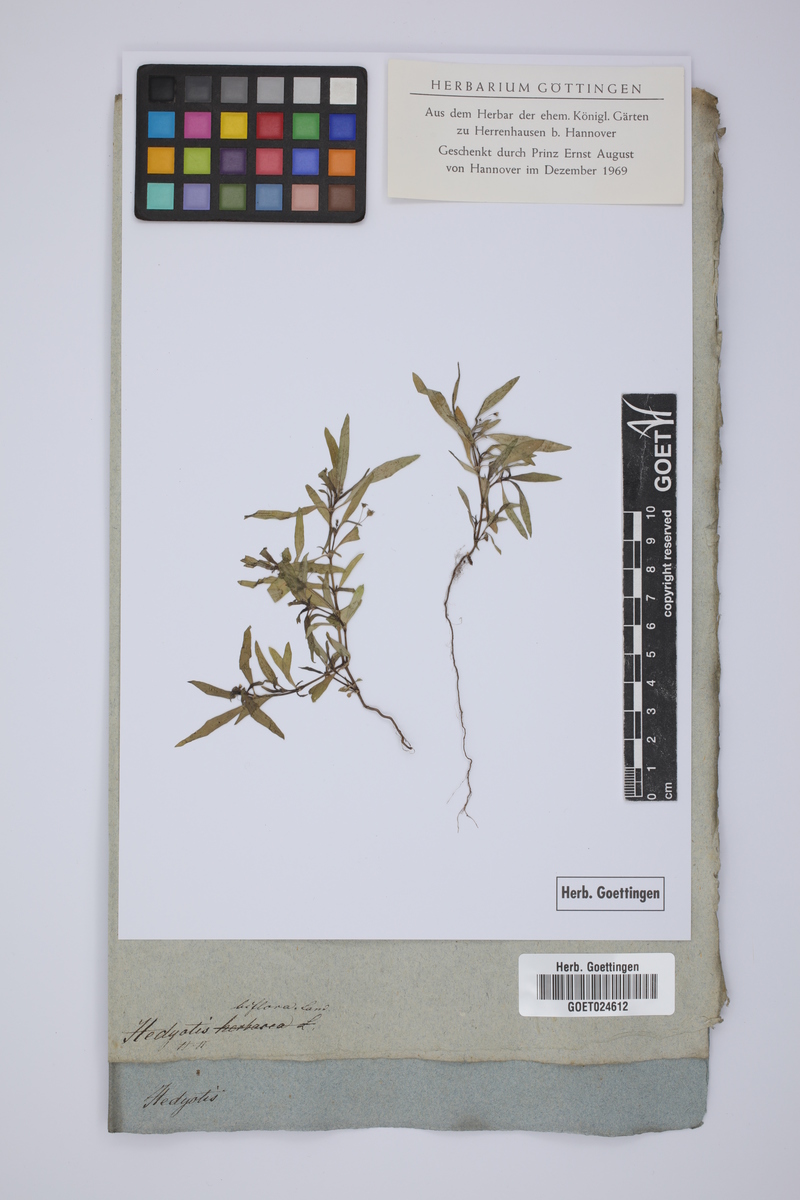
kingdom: Plantae
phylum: Tracheophyta
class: Magnoliopsida
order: Gentianales
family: Rubiaceae
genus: Leptopetalum
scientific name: Leptopetalum biflorum
